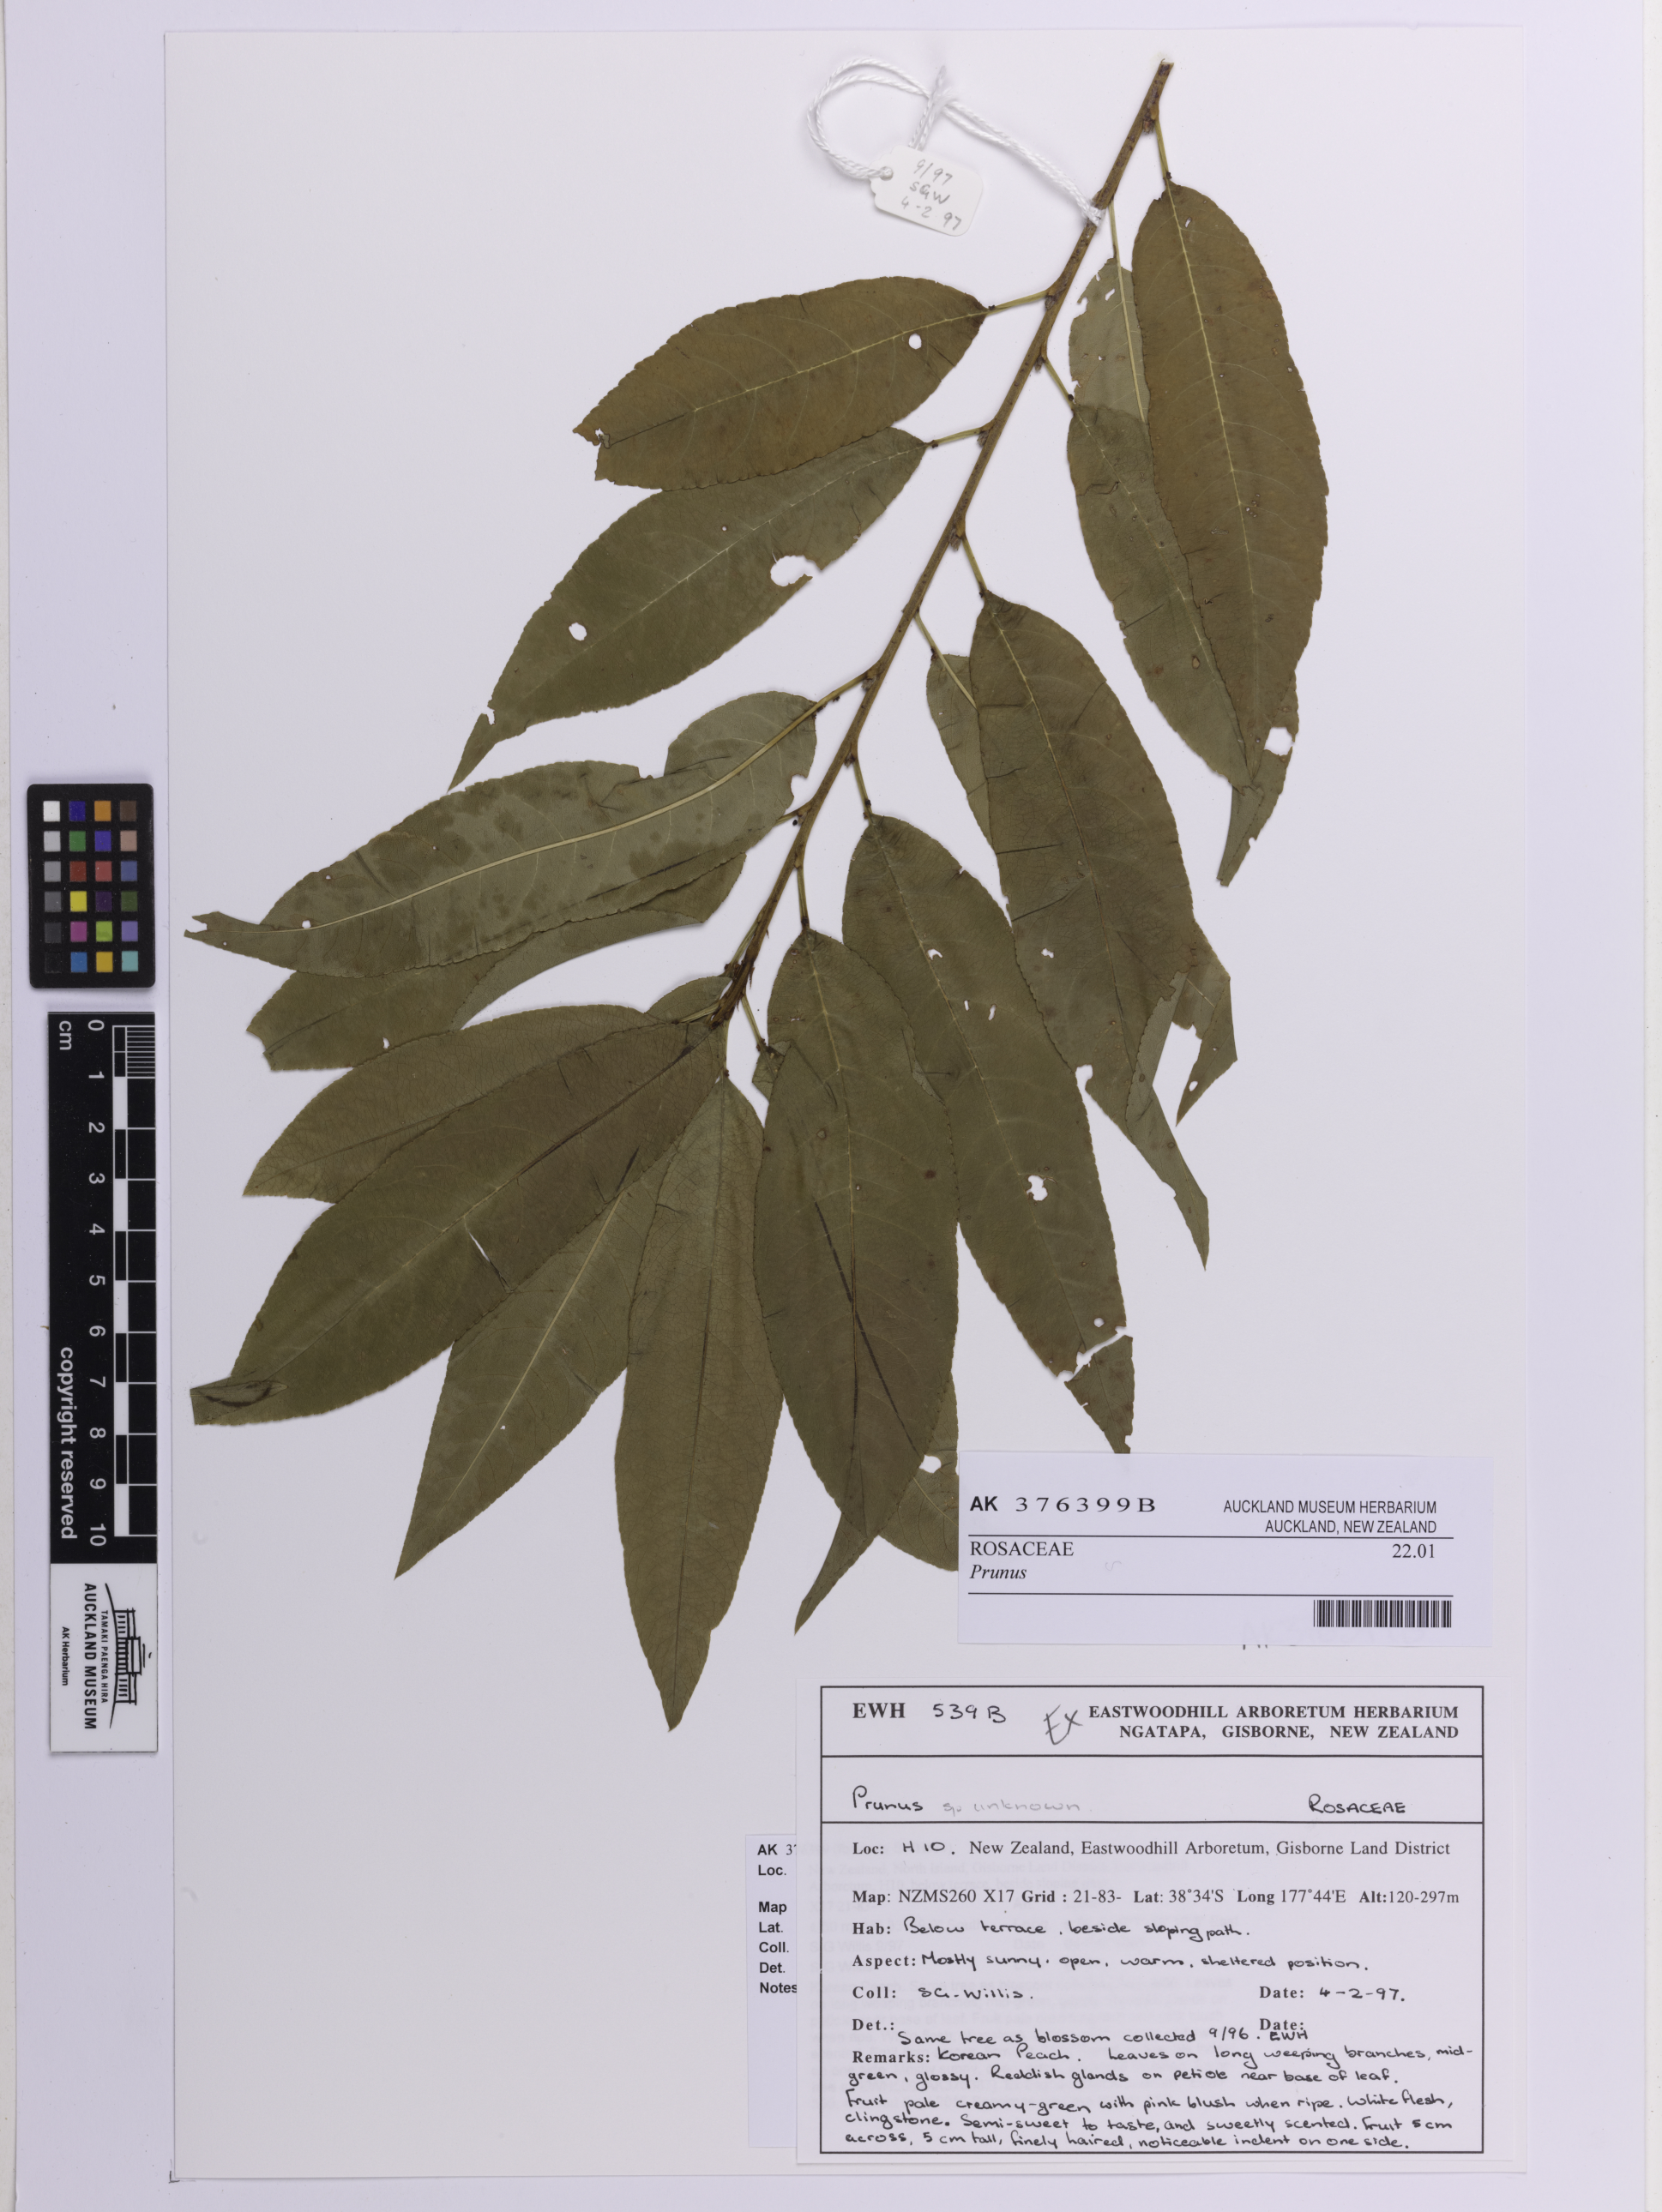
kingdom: Plantae
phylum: Tracheophyta
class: Magnoliopsida
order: Rosales
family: Rosaceae
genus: Prunus
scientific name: Prunus
